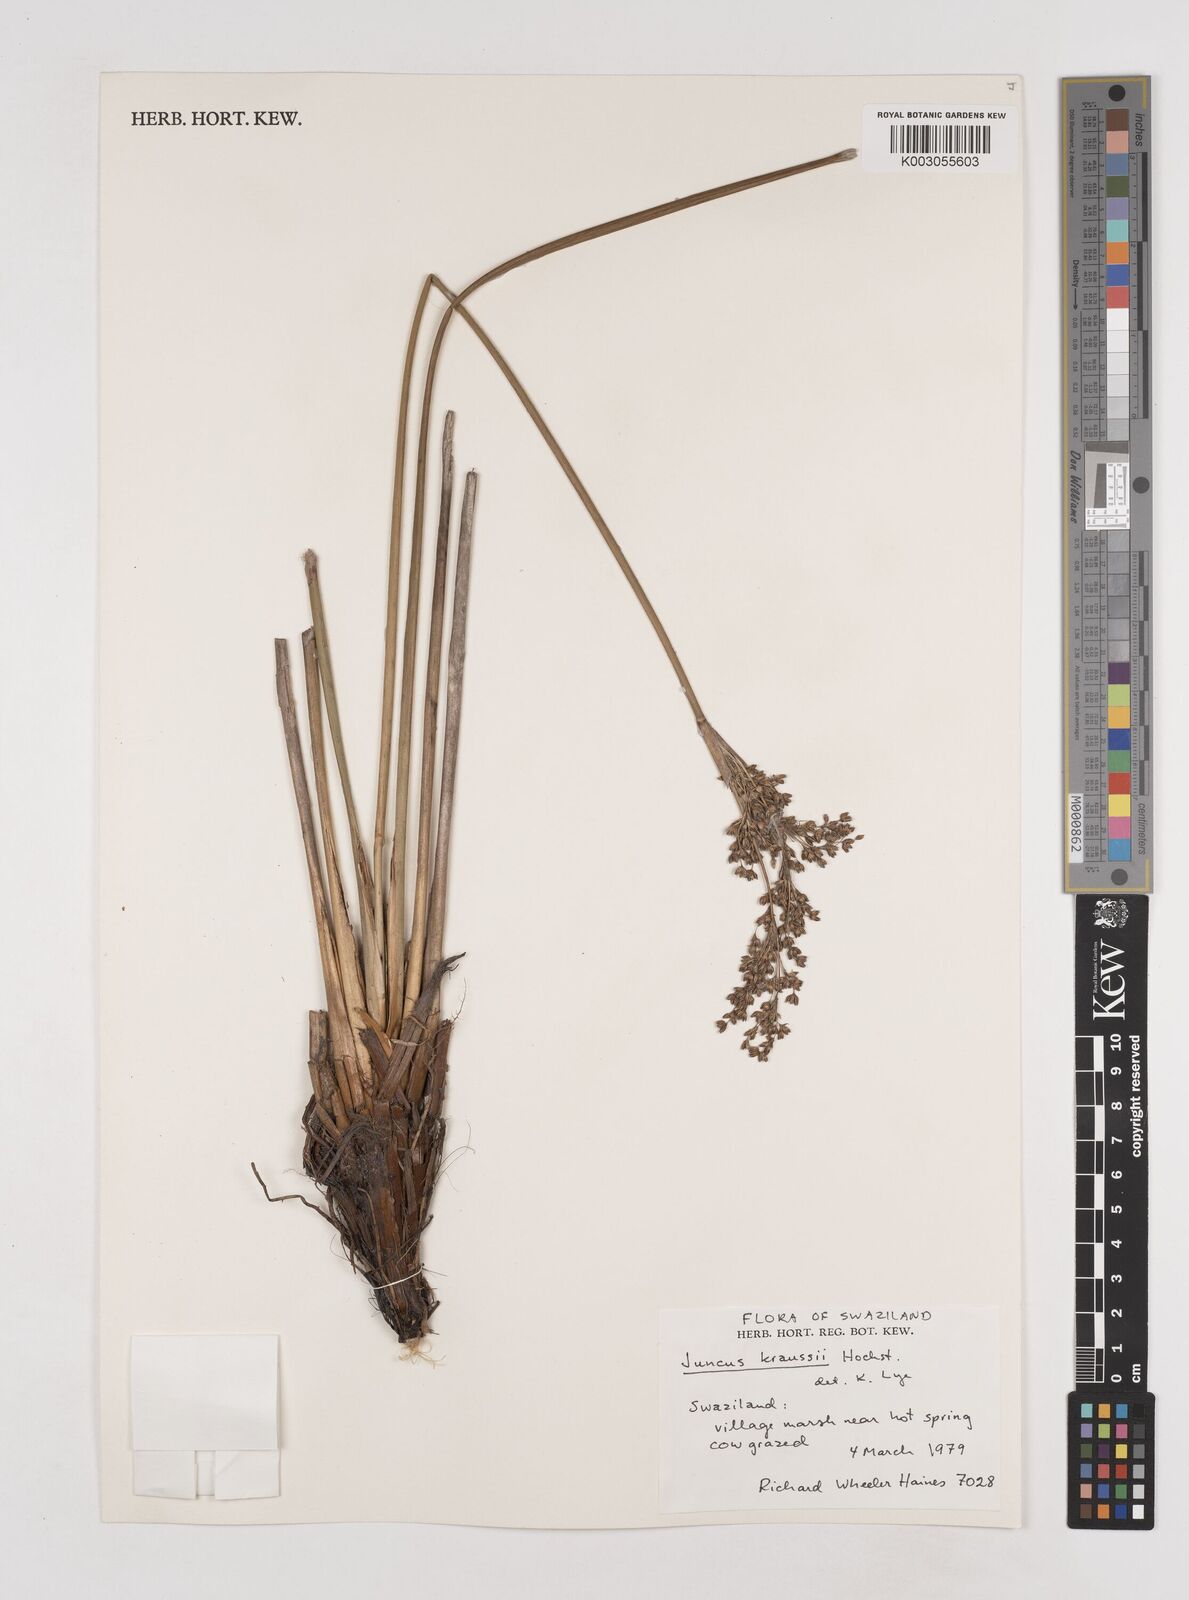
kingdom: Plantae
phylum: Tracheophyta
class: Liliopsida
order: Poales
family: Juncaceae
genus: Juncus
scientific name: Juncus kraussii
